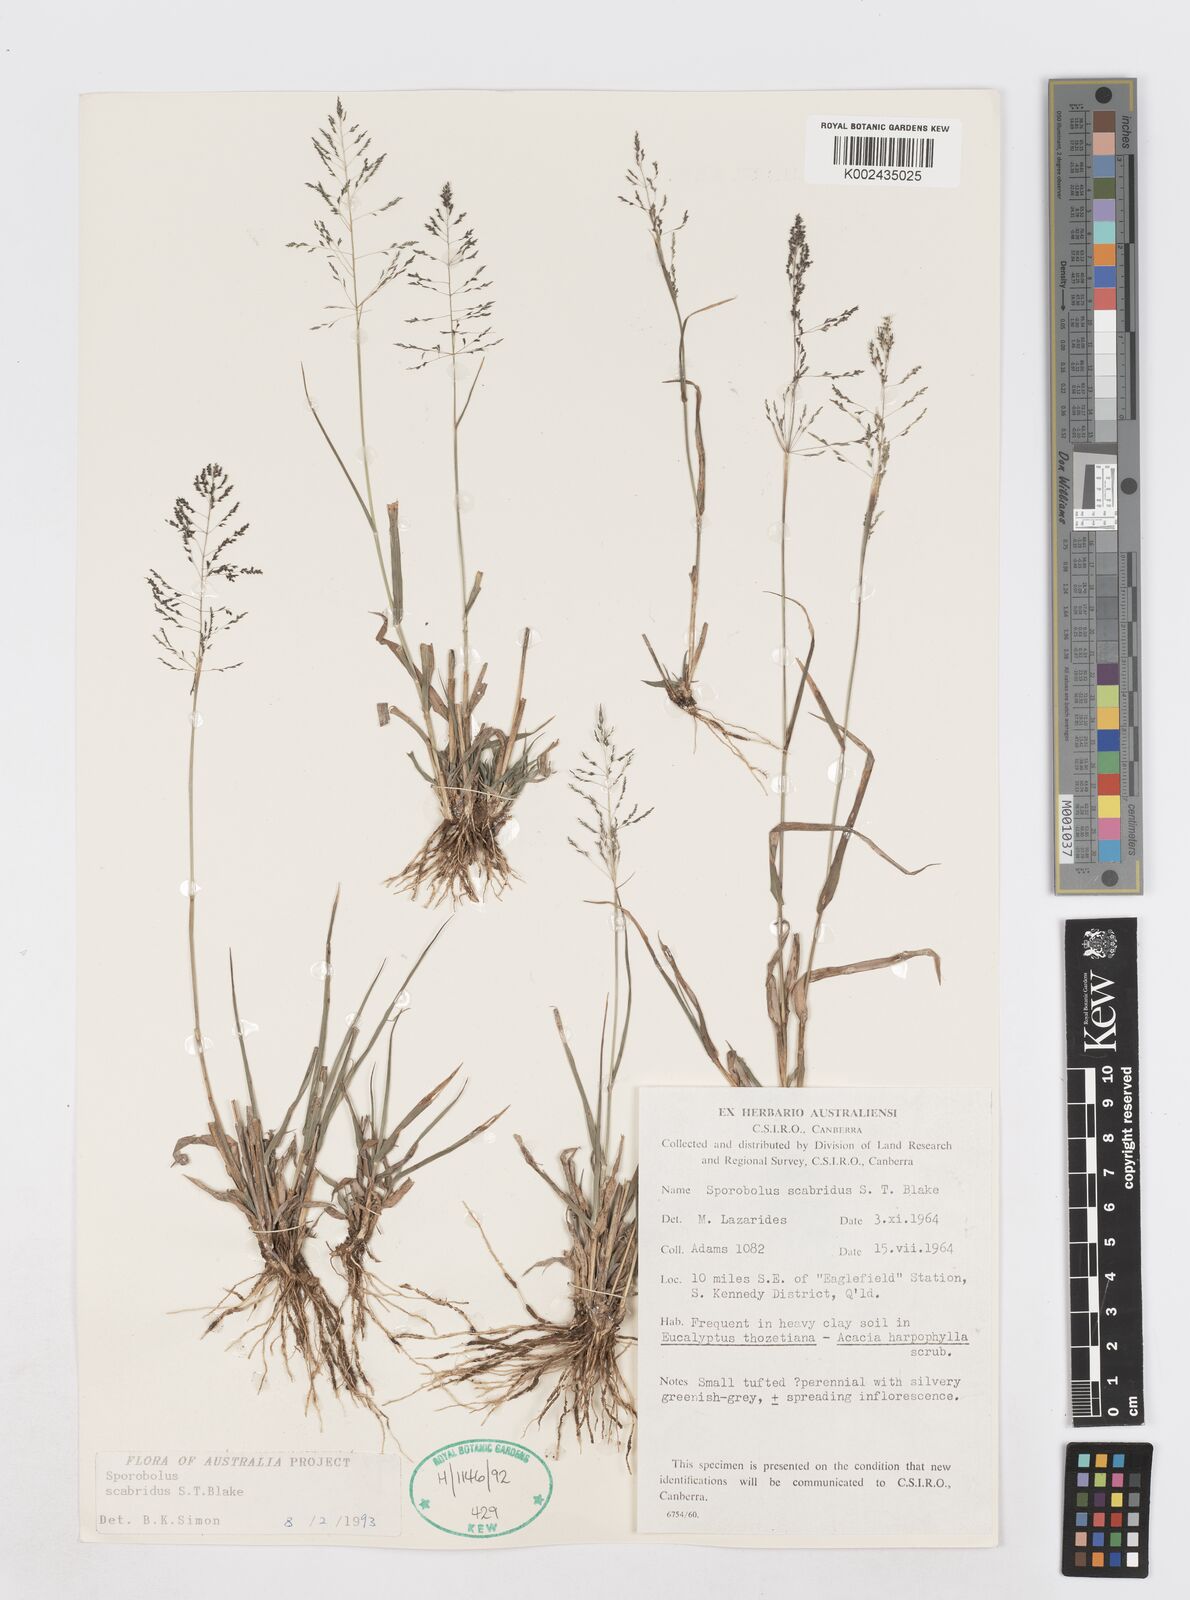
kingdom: Plantae
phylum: Tracheophyta
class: Liliopsida
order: Poales
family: Poaceae
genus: Sporobolus
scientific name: Sporobolus scabridus
